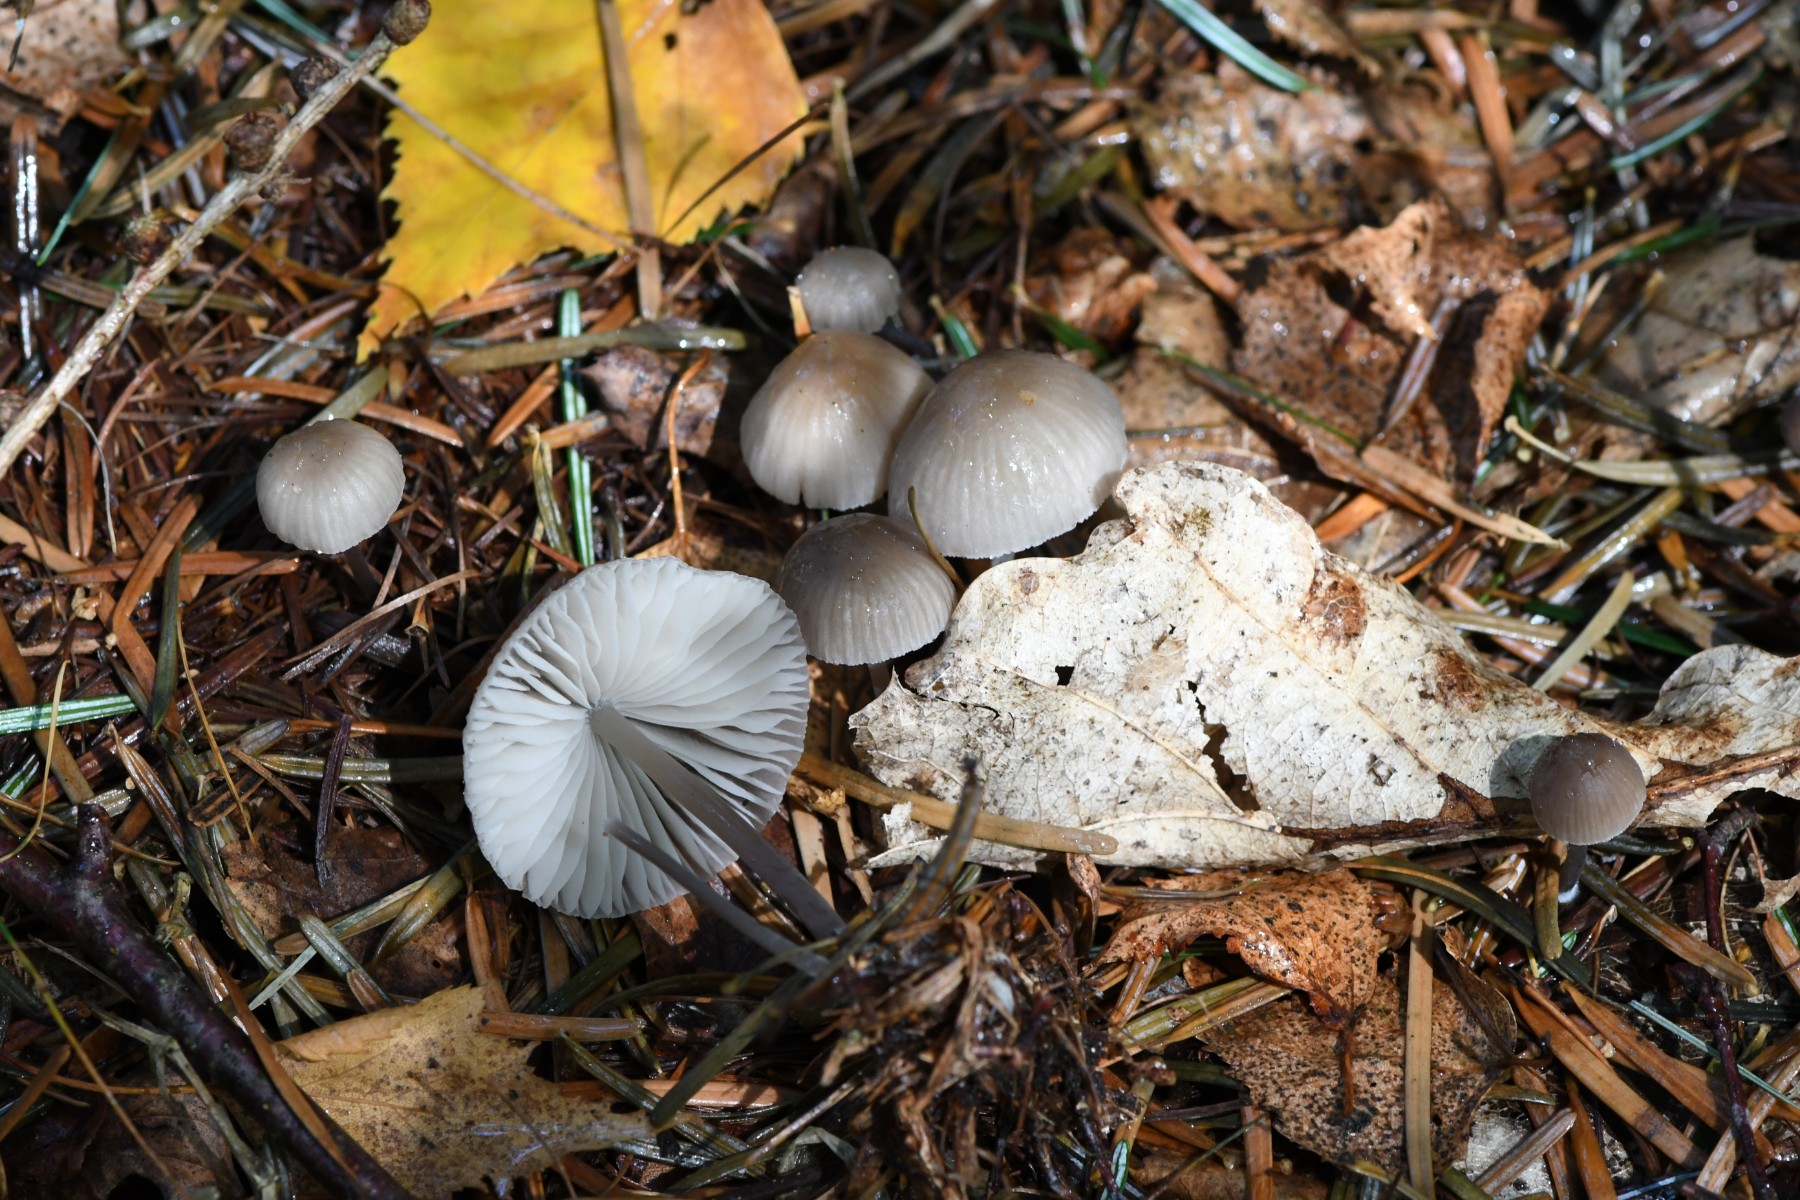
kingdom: Fungi
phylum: Basidiomycota
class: Agaricomycetes
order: Agaricales
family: Mycenaceae
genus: Mycena
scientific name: Mycena abramsii
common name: sommer-huesvamp
